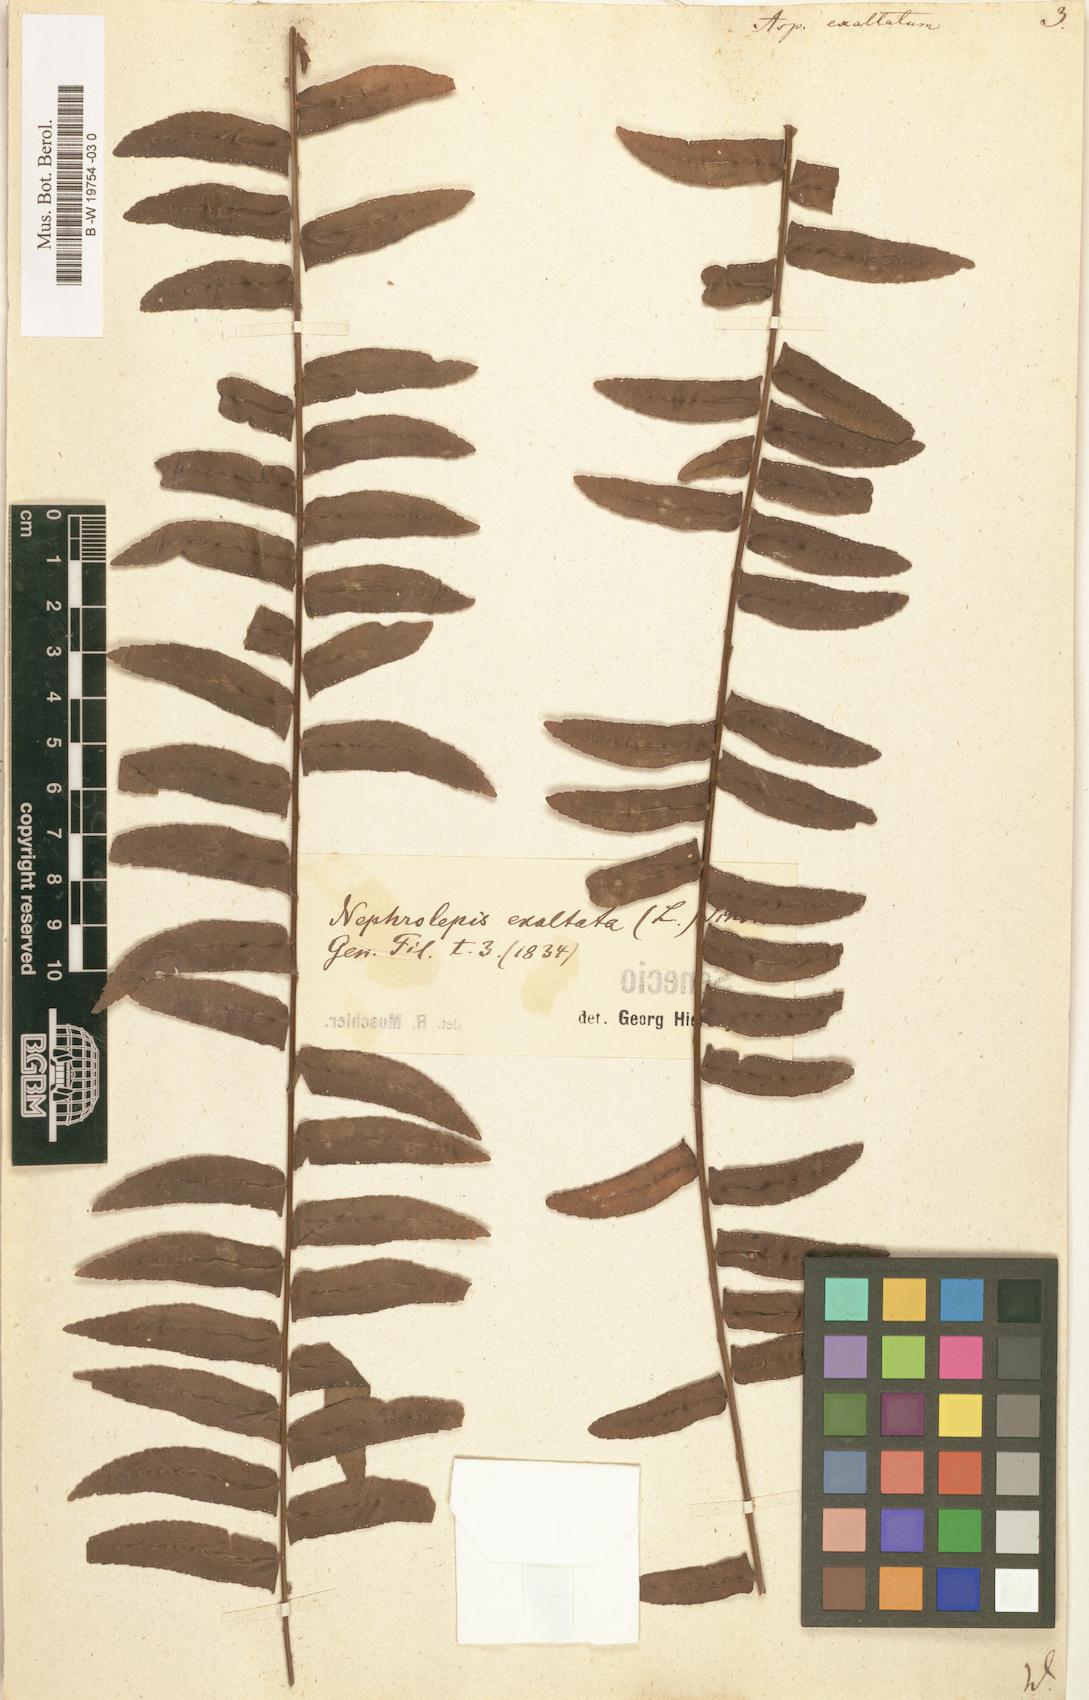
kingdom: Plantae
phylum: Tracheophyta
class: Polypodiopsida
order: Polypodiales
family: Nephrolepidaceae
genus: Nephrolepis
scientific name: Nephrolepis exaltata
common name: Sword fern
